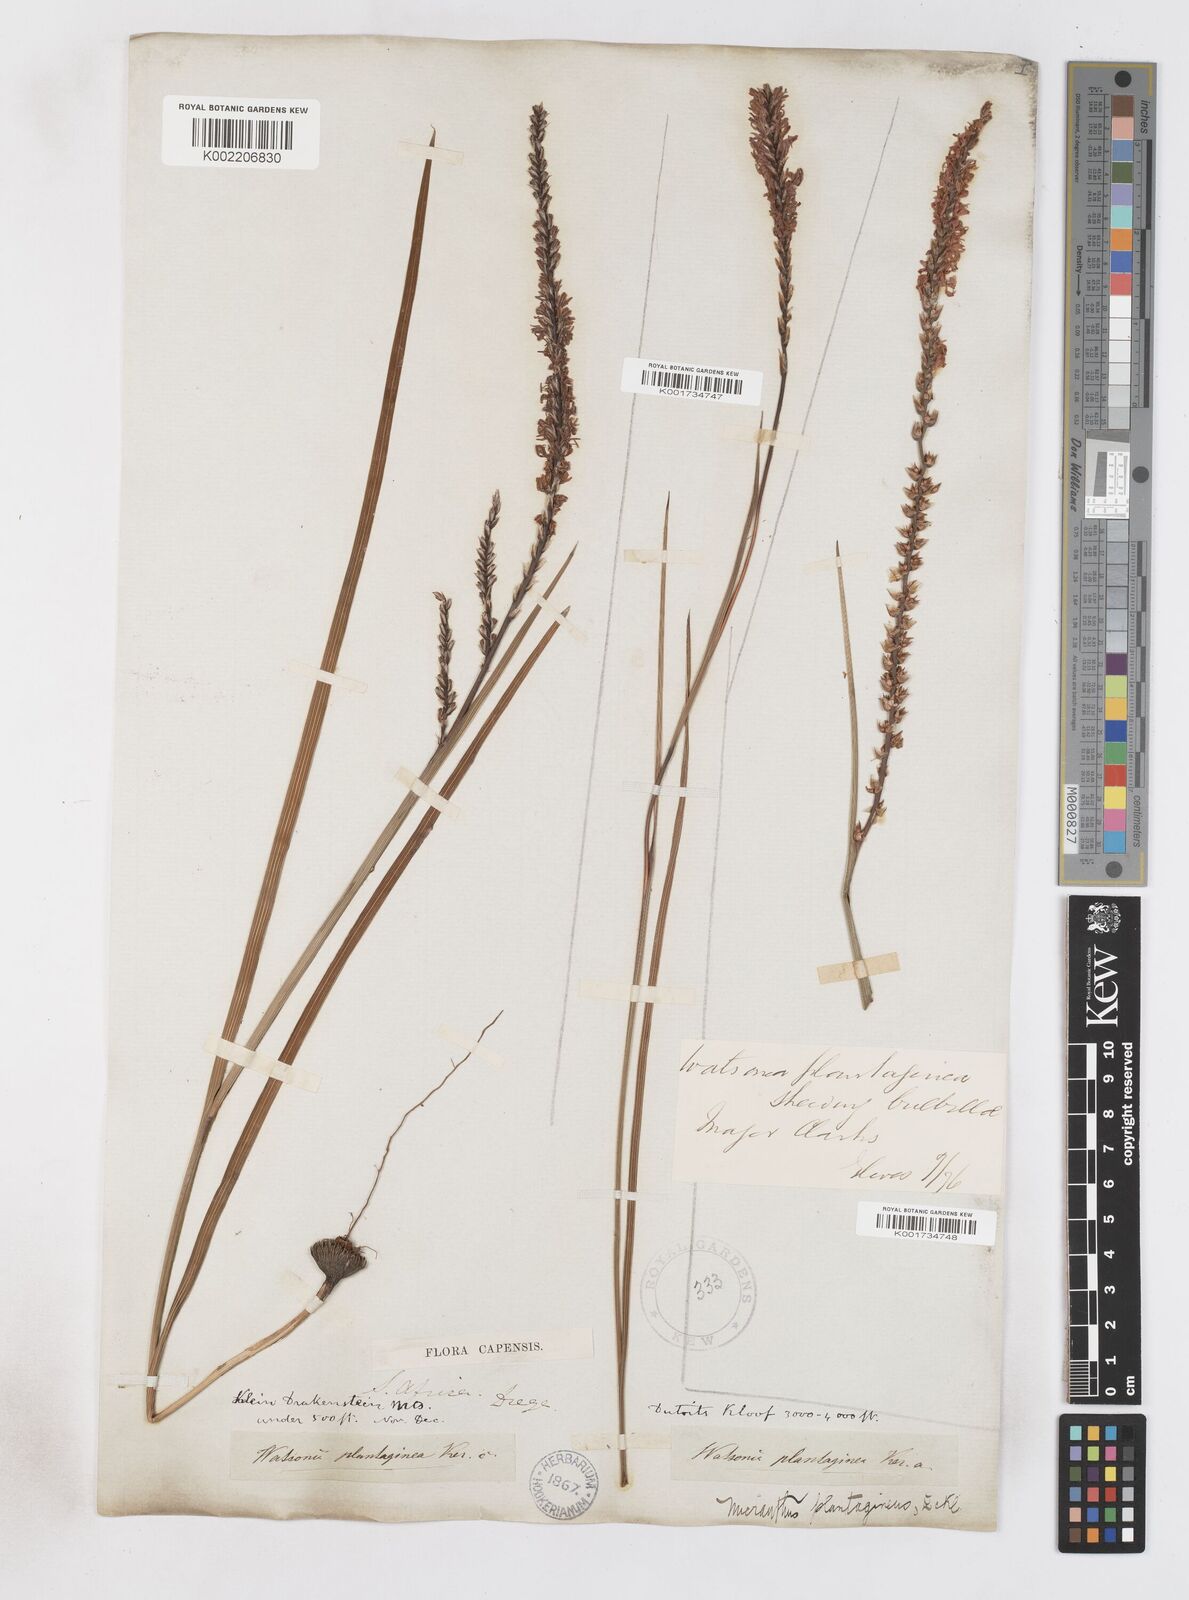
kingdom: Plantae
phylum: Tracheophyta
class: Liliopsida
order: Asparagales
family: Iridaceae
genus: Micranthus
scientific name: Micranthus alopecuroides
